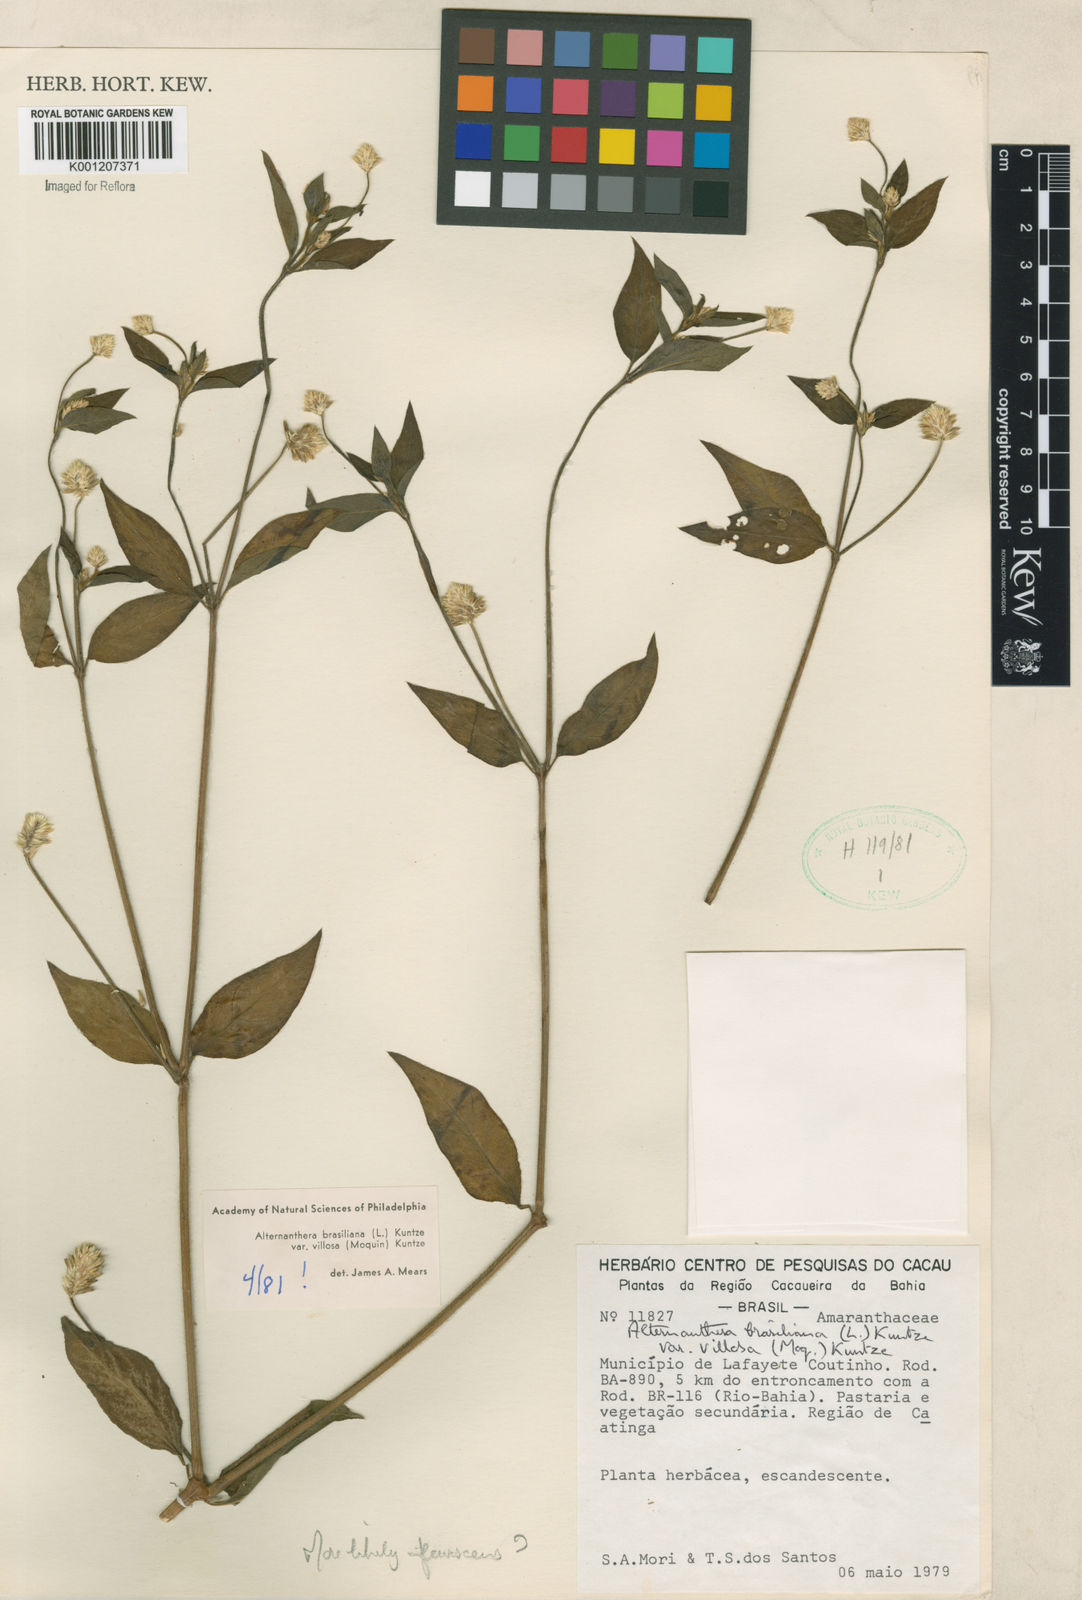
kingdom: Plantae
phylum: Tracheophyta
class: Magnoliopsida
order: Caryophyllales
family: Amaranthaceae
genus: Alternanthera
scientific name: Alternanthera ramosissima
